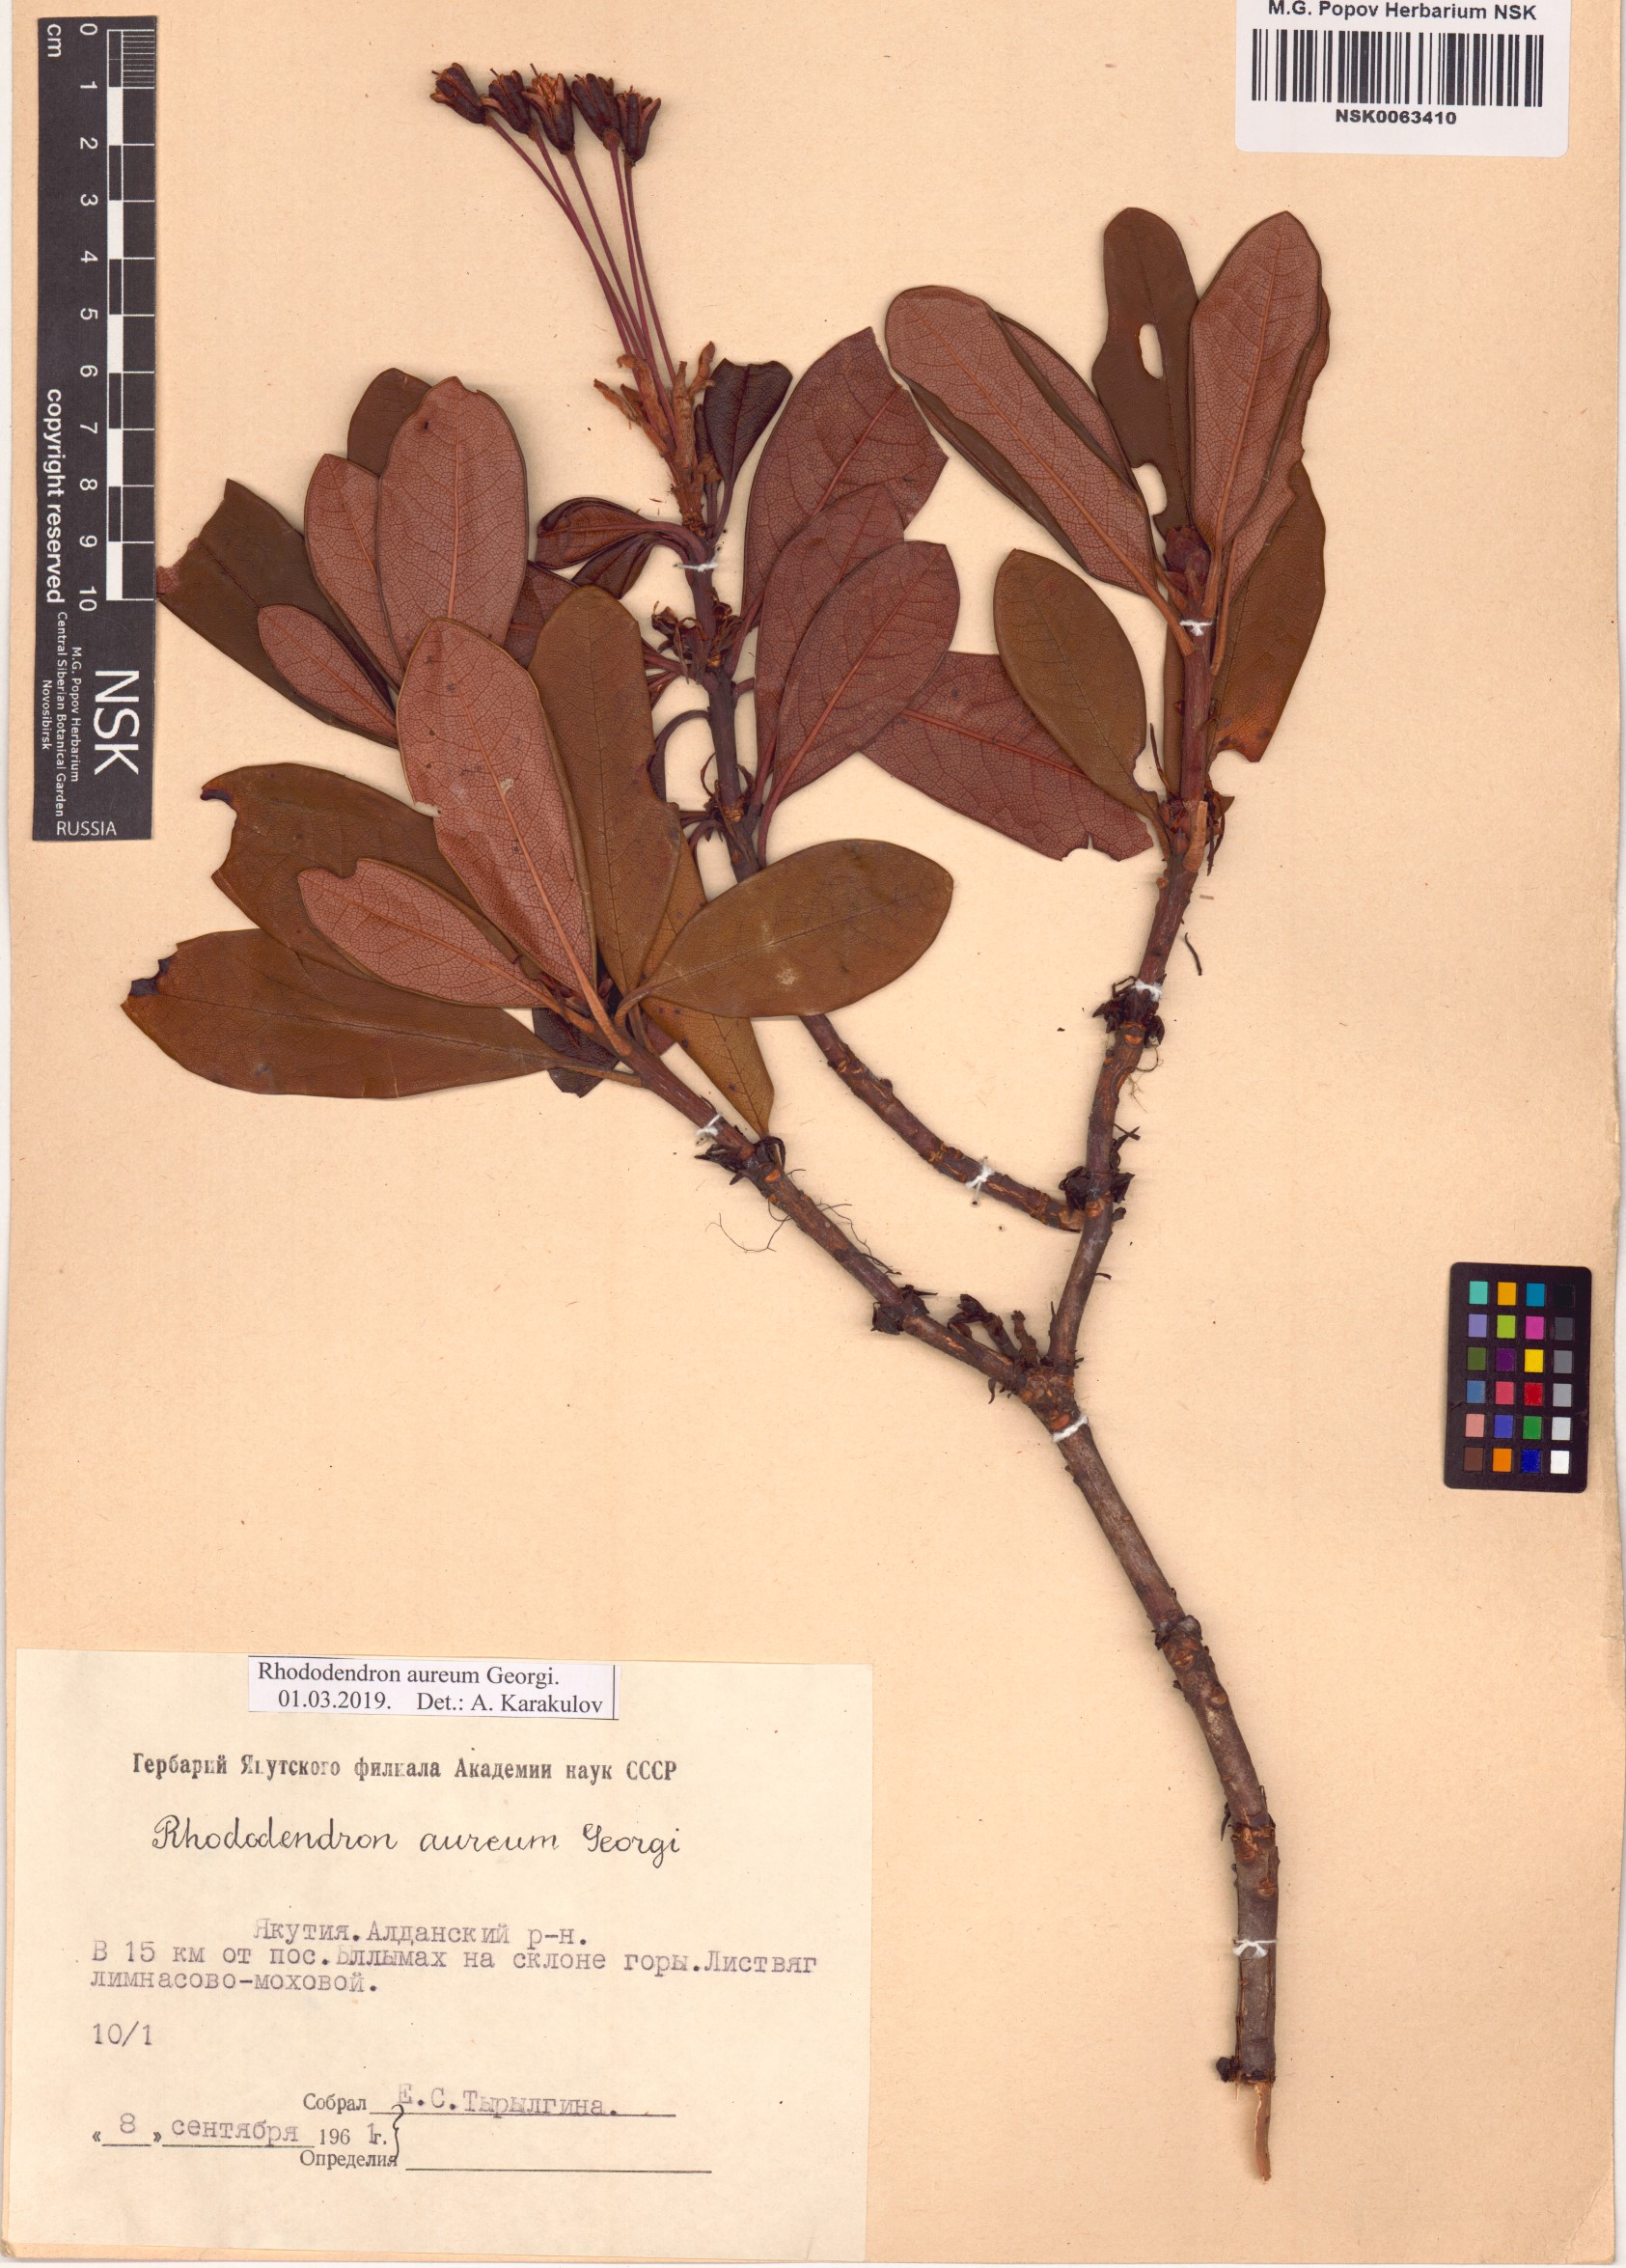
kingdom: Plantae
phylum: Tracheophyta
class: Magnoliopsida
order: Ericales
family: Ericaceae
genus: Rhododendron
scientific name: Rhododendron aureum
